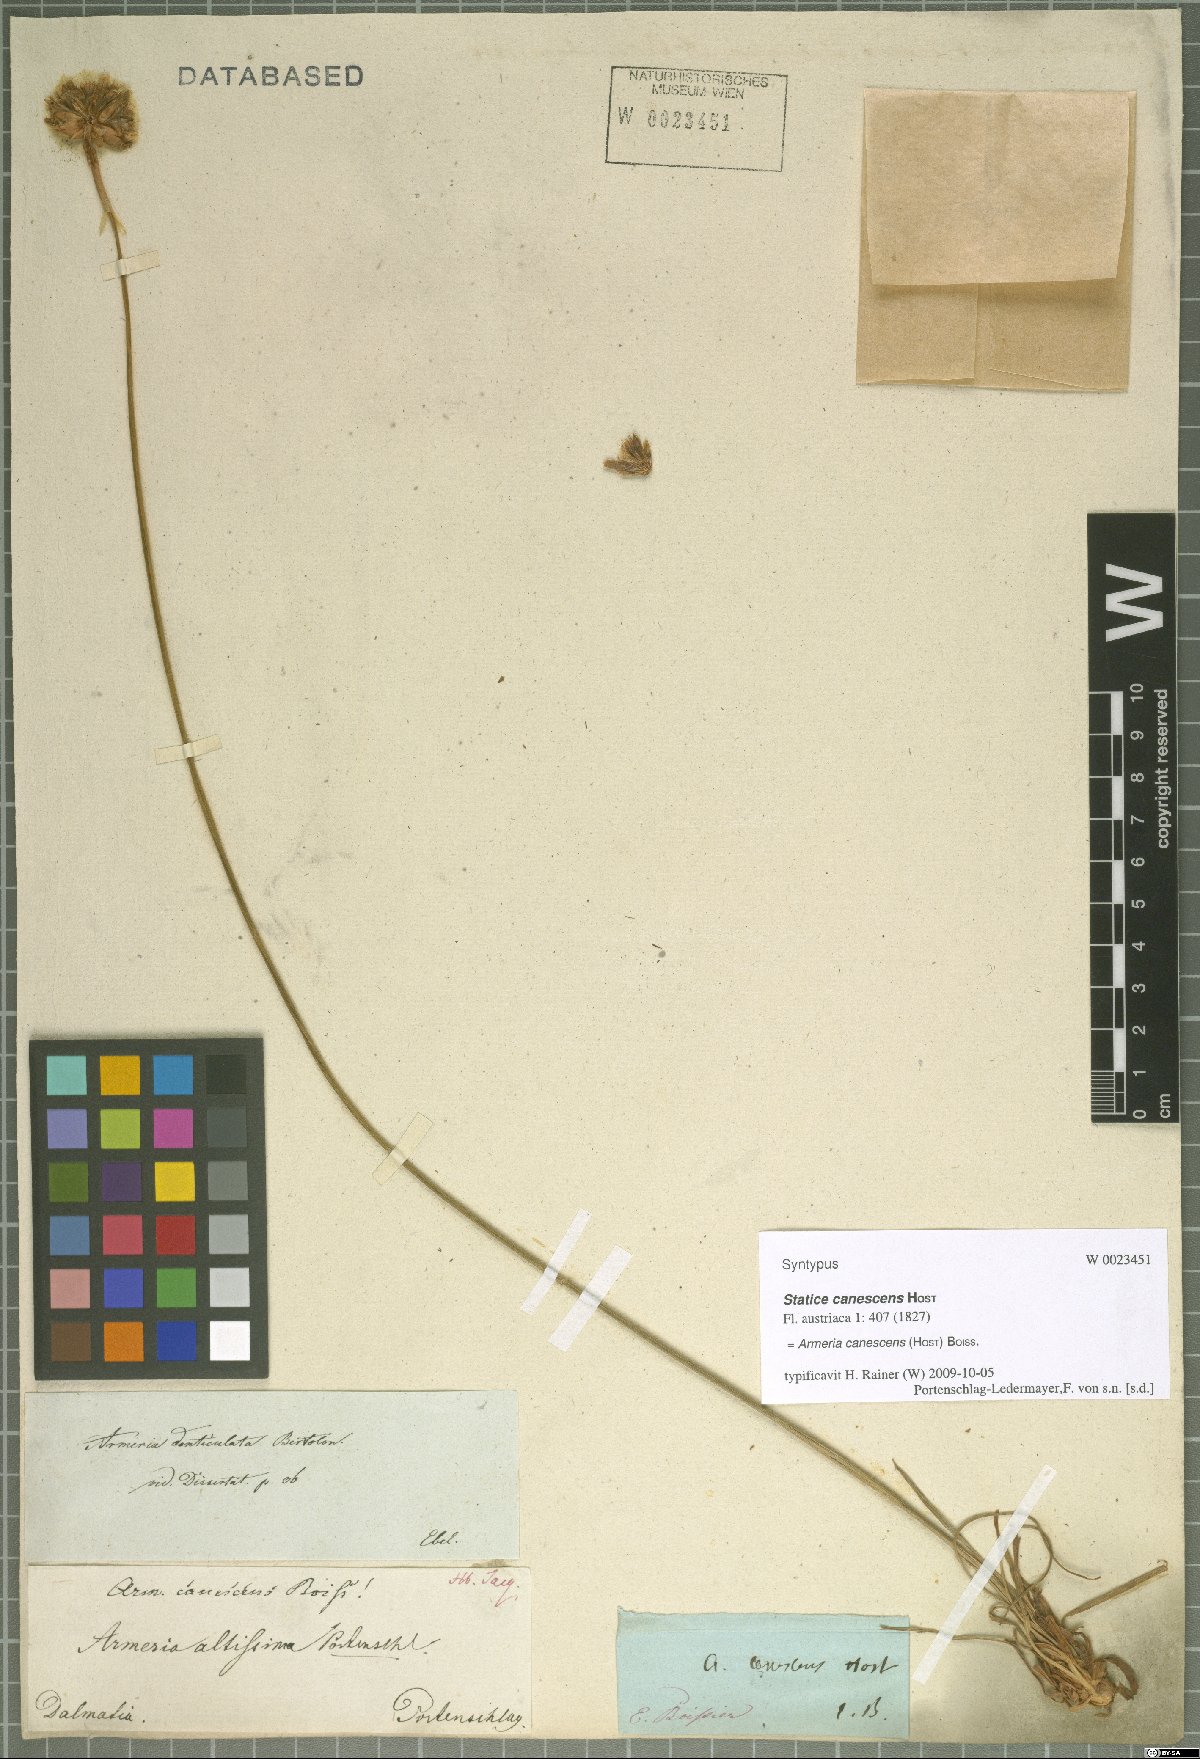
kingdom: Plantae
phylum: Tracheophyta
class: Magnoliopsida
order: Caryophyllales
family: Plumbaginaceae
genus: Armeria
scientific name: Armeria canescens
